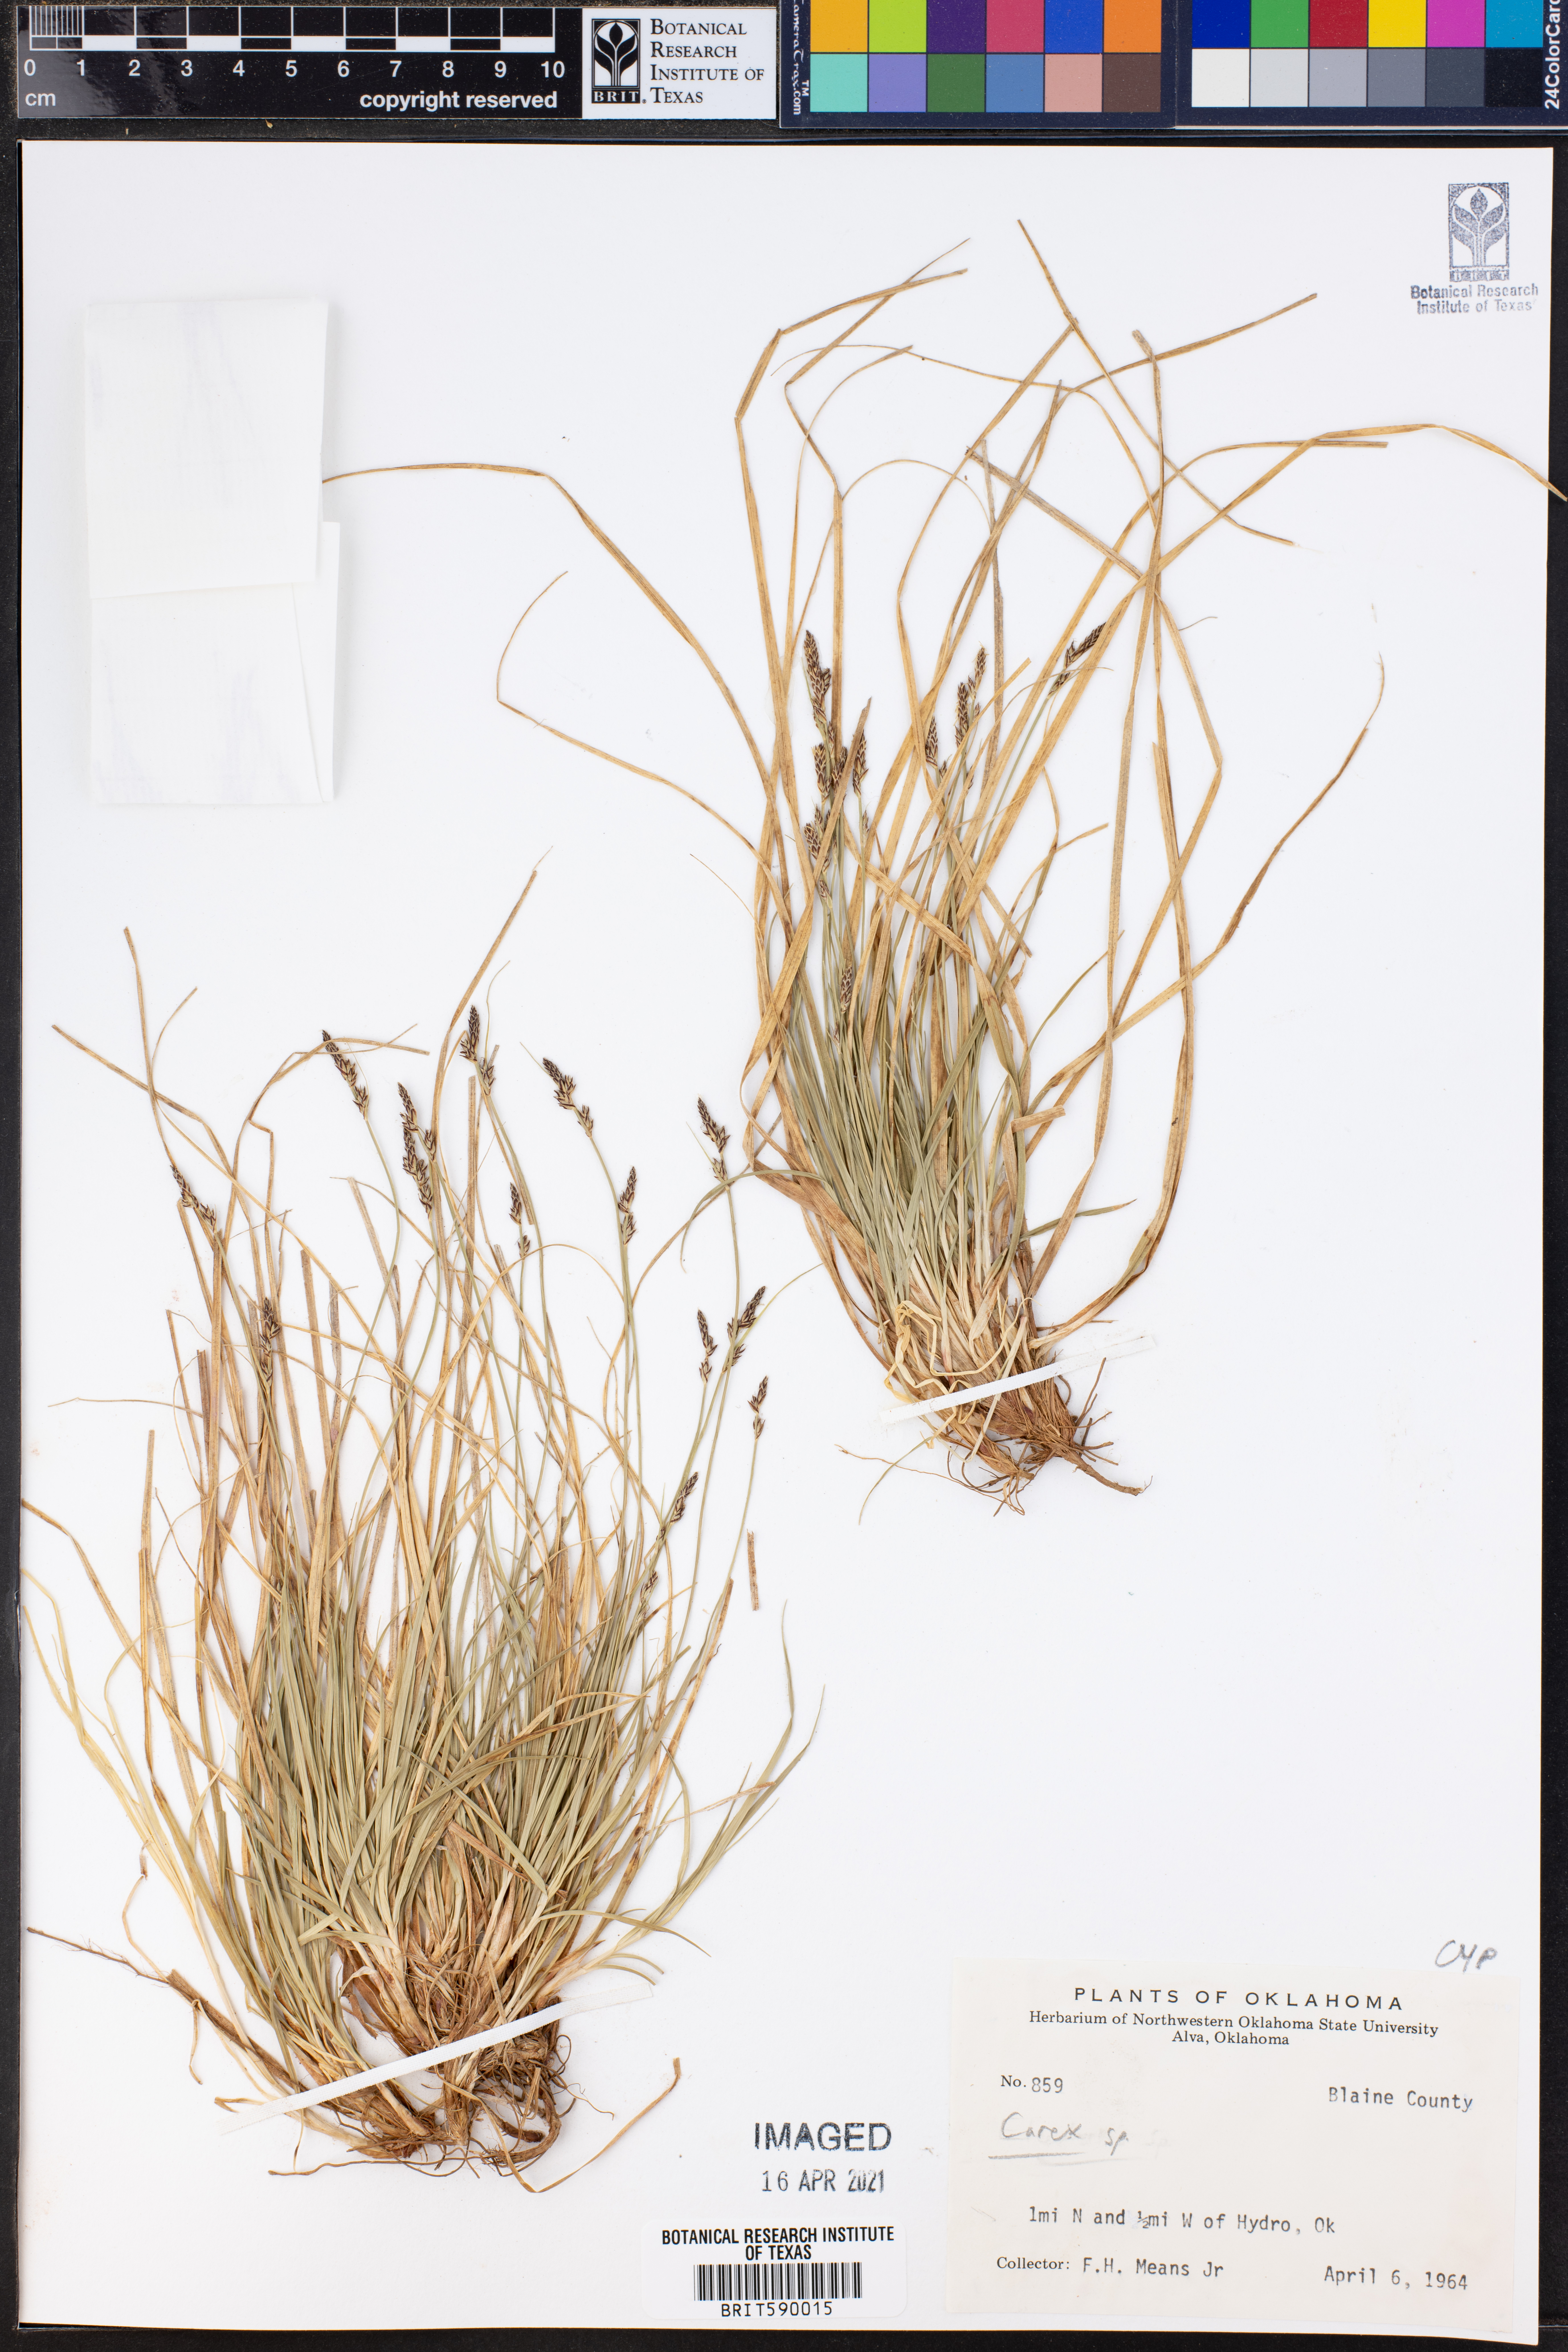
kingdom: Plantae
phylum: Tracheophyta
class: Liliopsida
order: Poales
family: Cyperaceae
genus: Carex
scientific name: Carex
